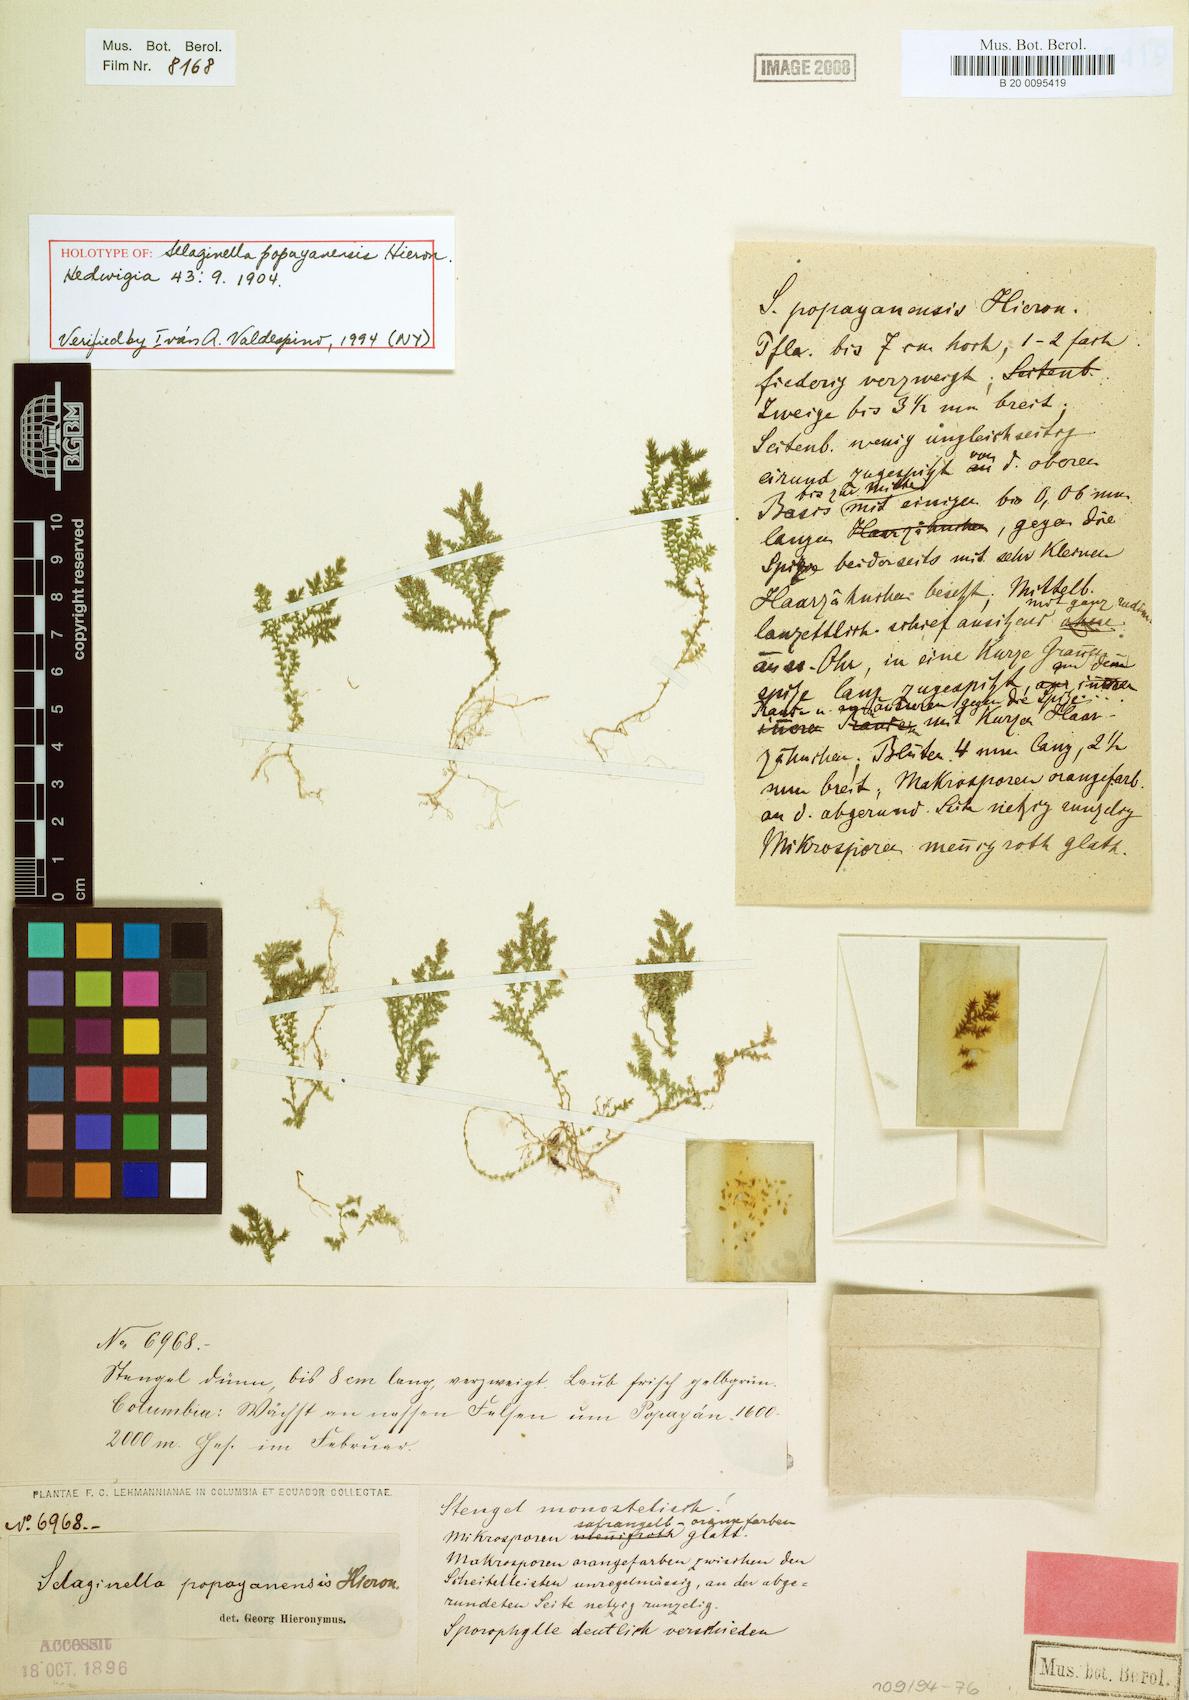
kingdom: Plantae
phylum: Tracheophyta
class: Lycopodiopsida
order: Selaginellales
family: Selaginellaceae
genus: Selaginella
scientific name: Selaginella popayanensis
